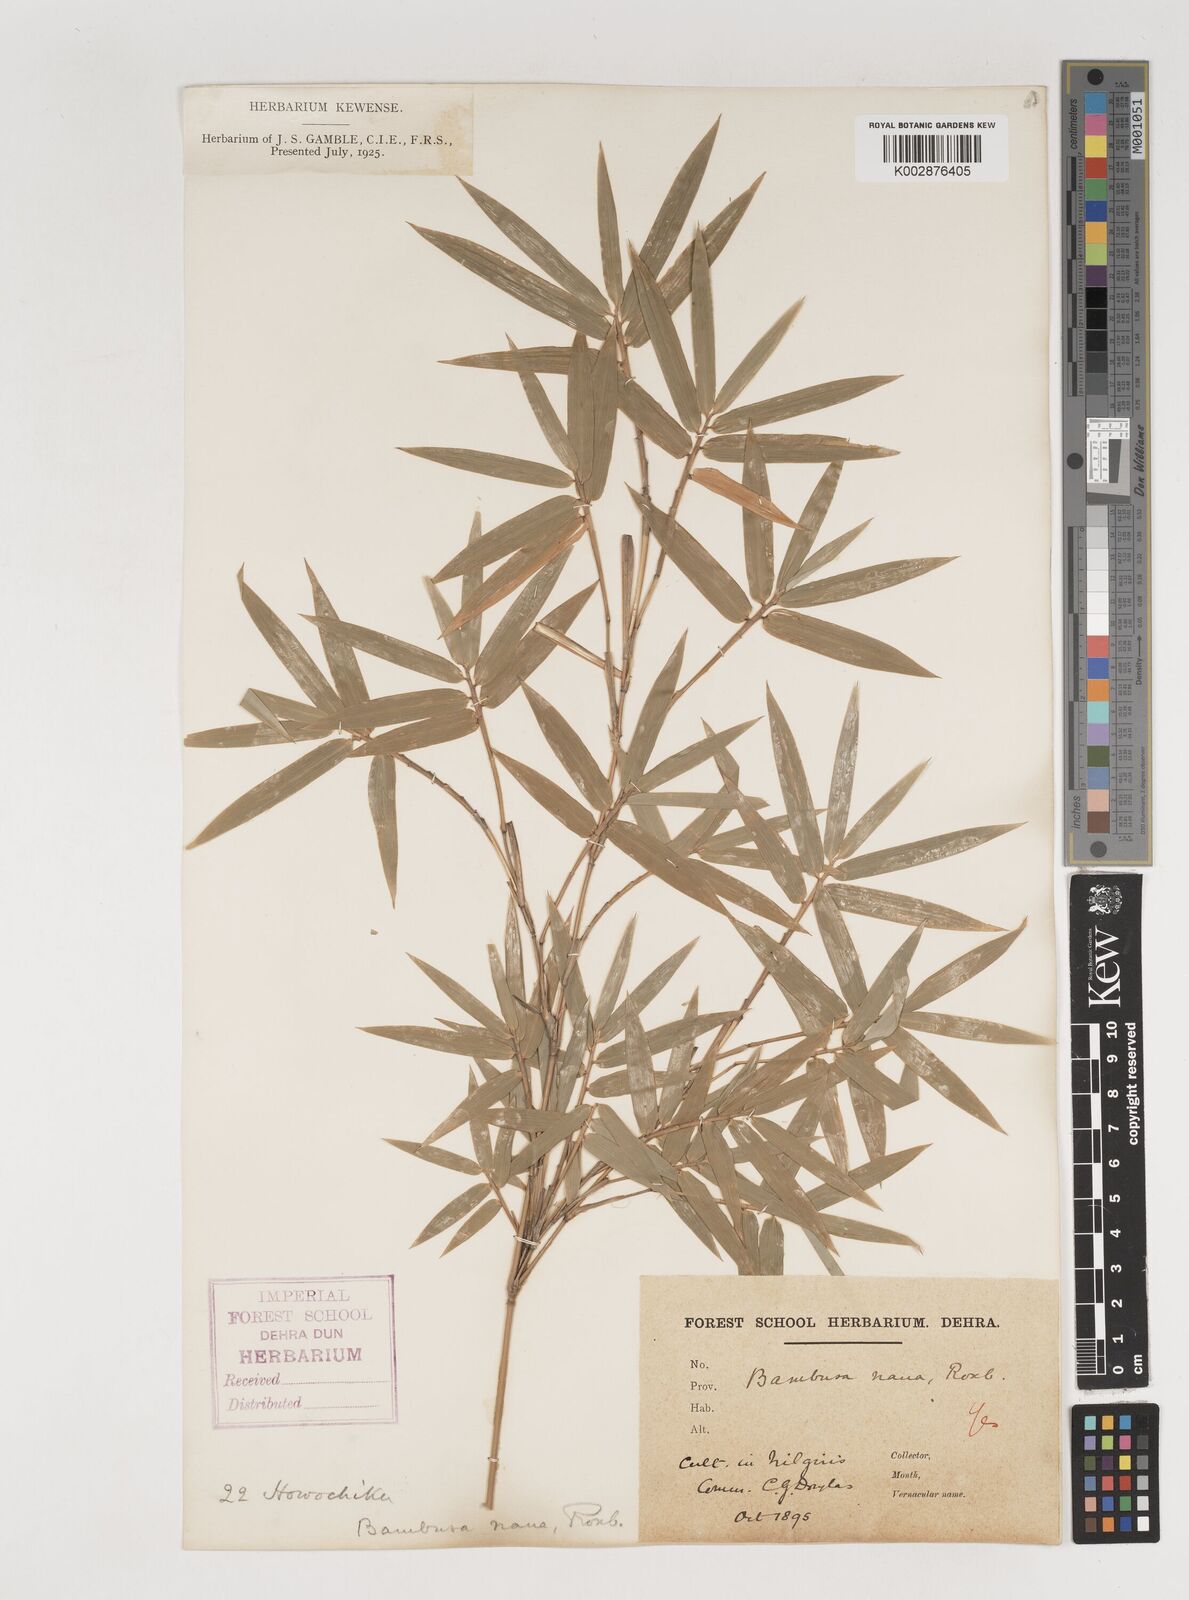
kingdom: Plantae
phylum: Tracheophyta
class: Liliopsida
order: Poales
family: Poaceae
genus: Bambusa
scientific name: Bambusa multiplex
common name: Hedge bamboo
